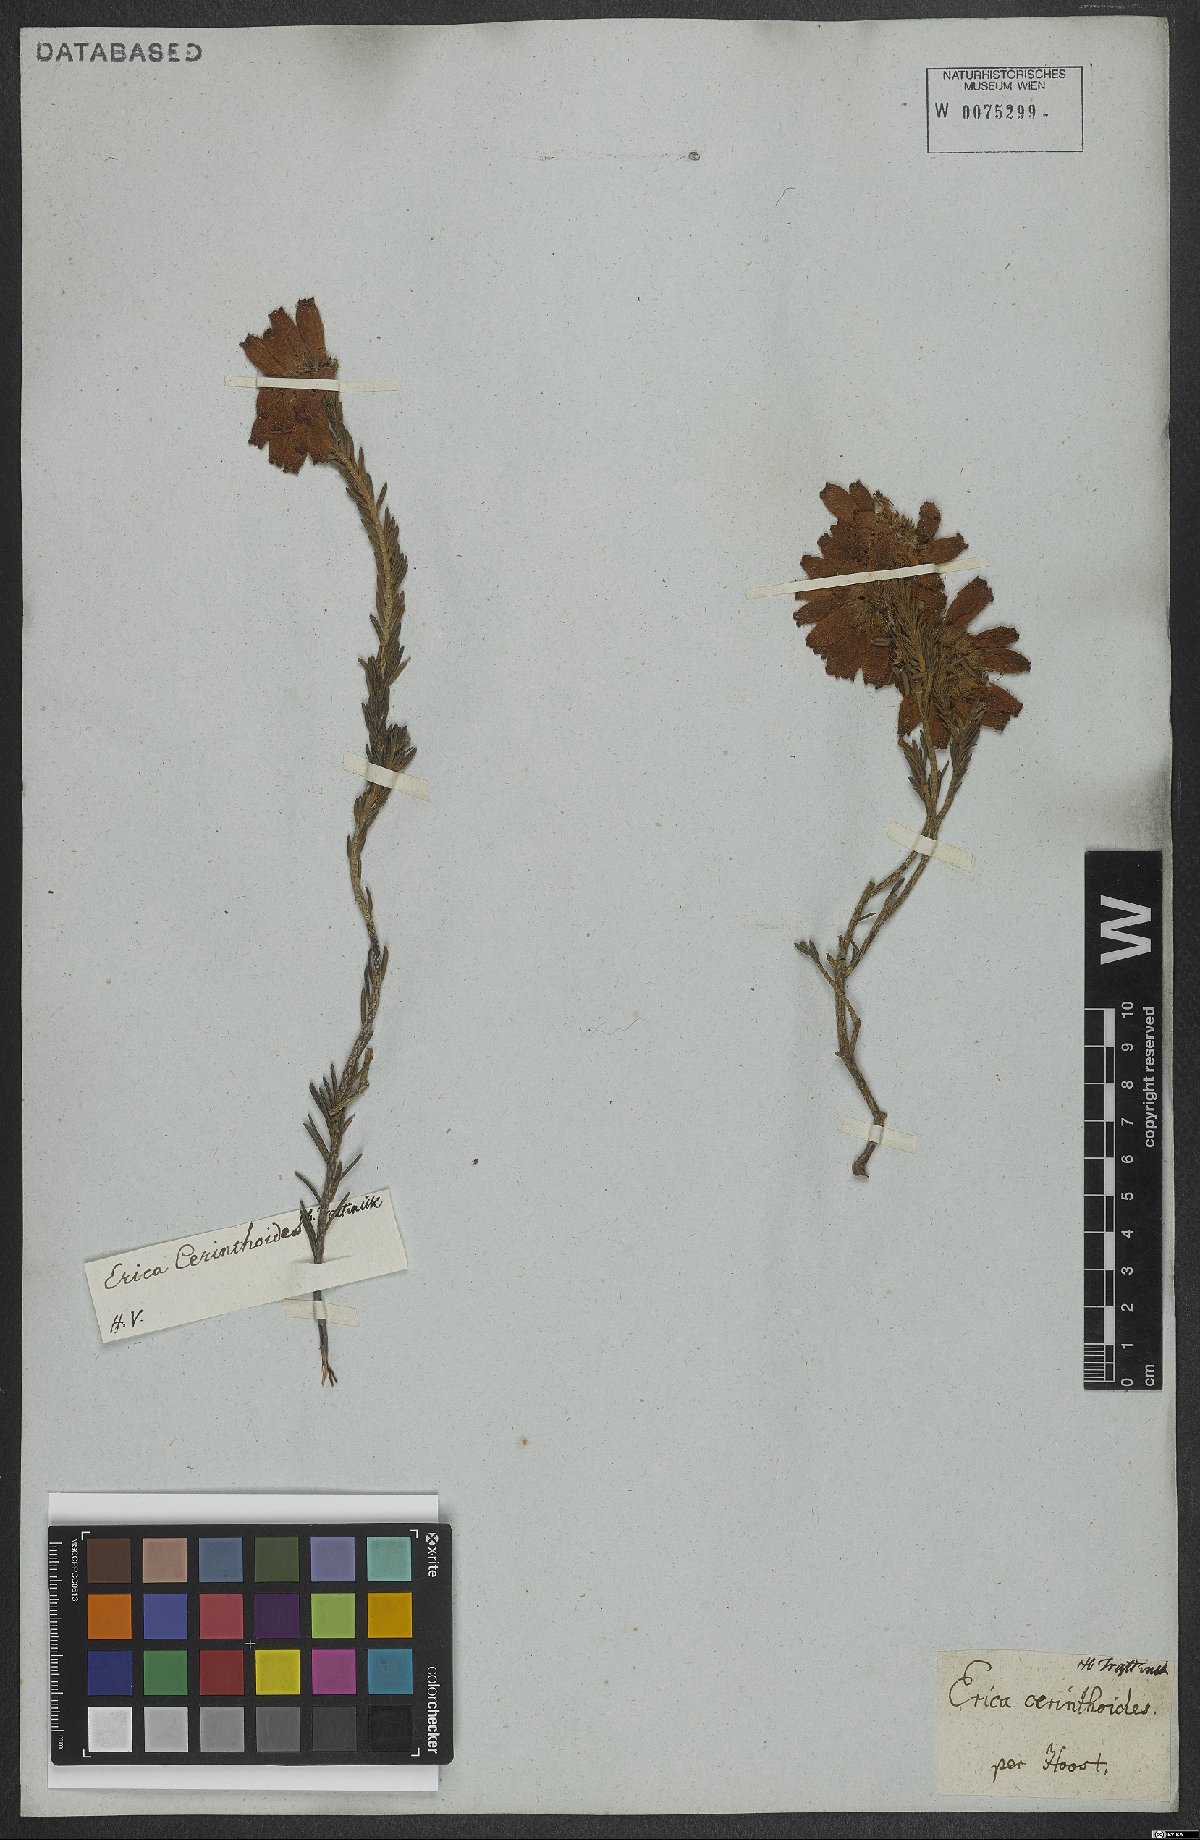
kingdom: Plantae
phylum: Tracheophyta
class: Magnoliopsida
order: Ericales
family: Ericaceae
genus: Erica
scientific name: Erica cerinthoides
